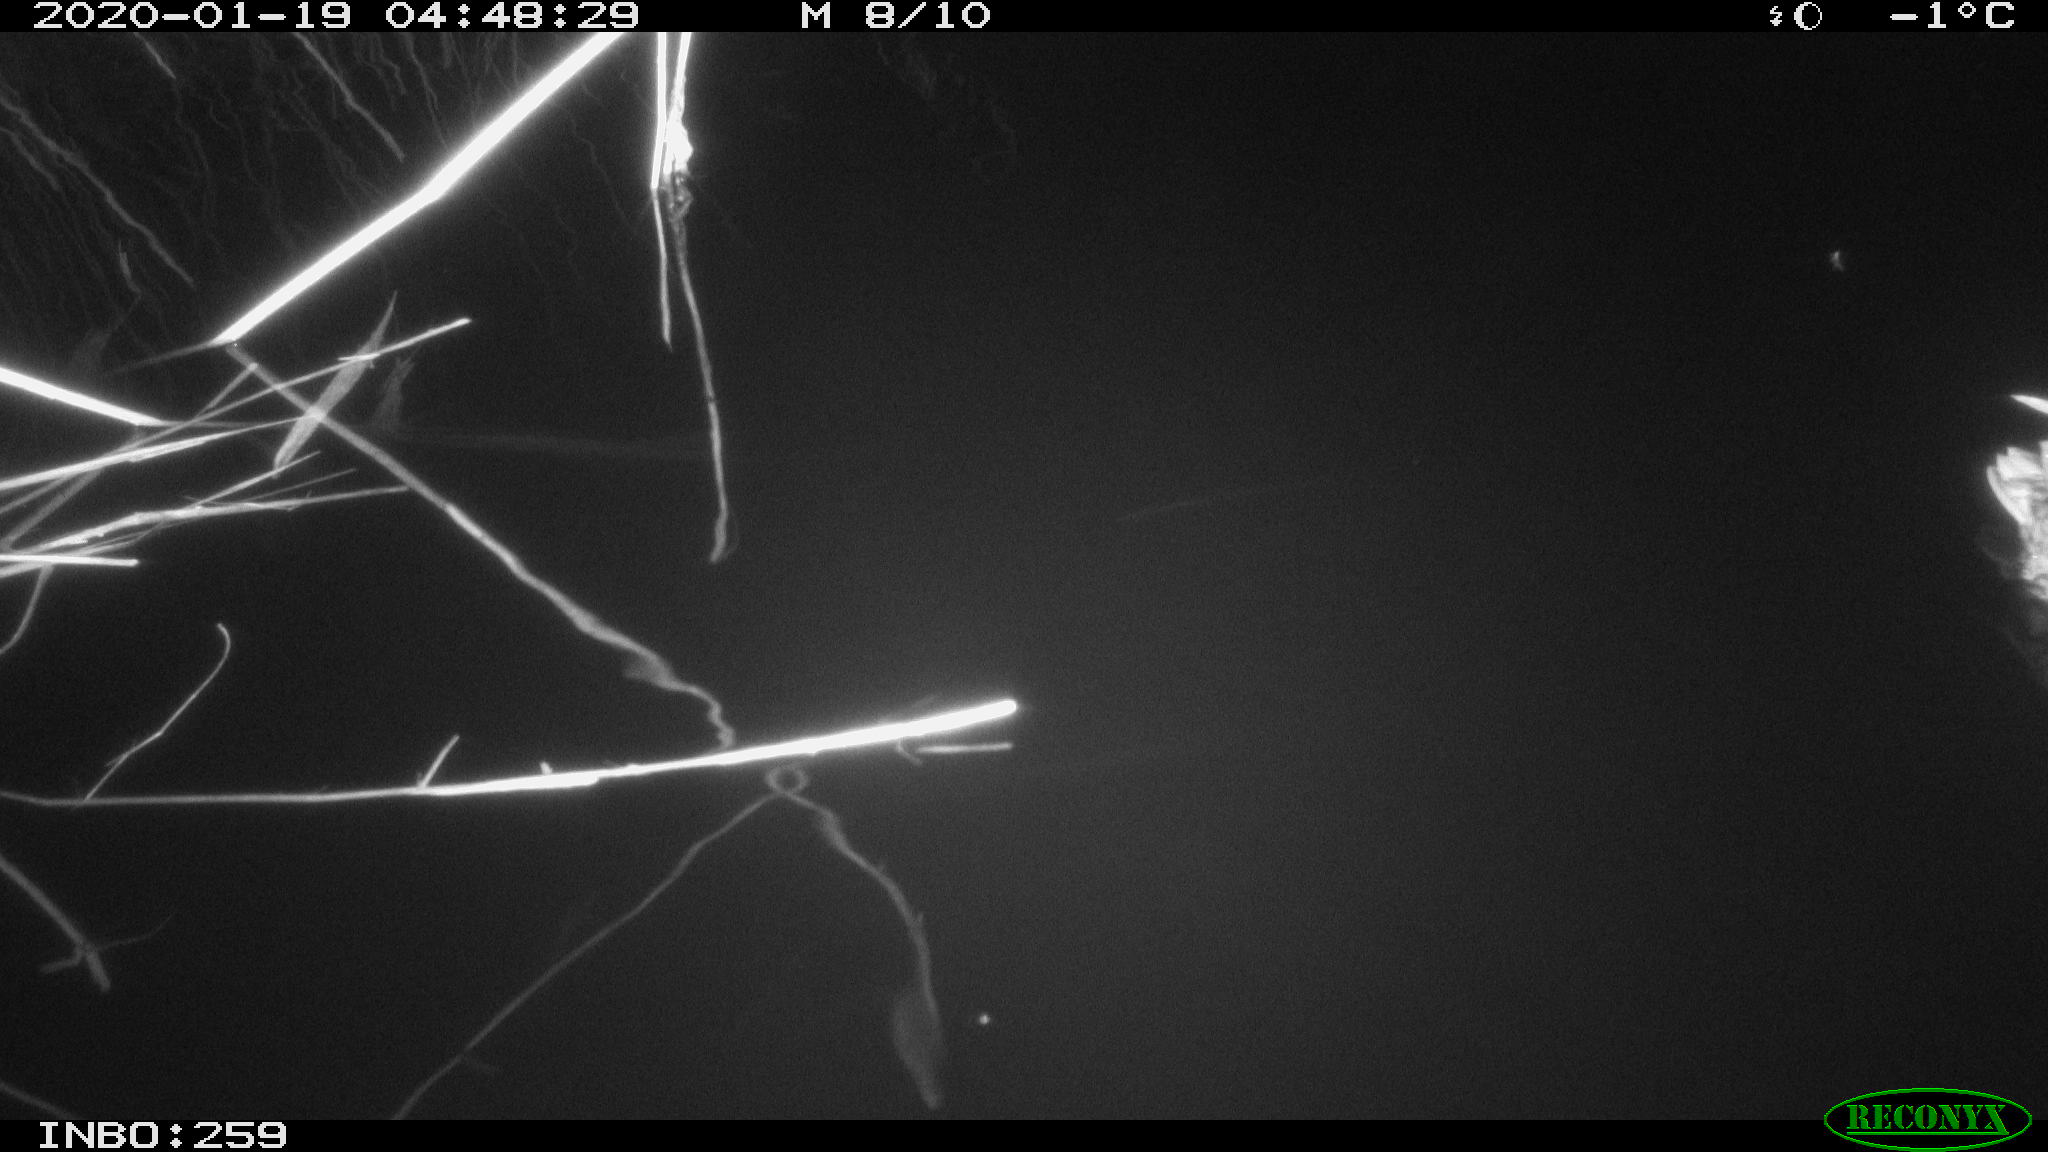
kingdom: Animalia
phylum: Chordata
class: Aves
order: Anseriformes
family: Anatidae
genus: Anas
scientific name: Anas platyrhynchos
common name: Mallard
